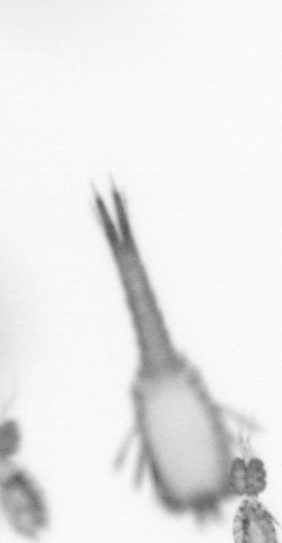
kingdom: Animalia
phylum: Arthropoda
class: Copepoda
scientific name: Copepoda
